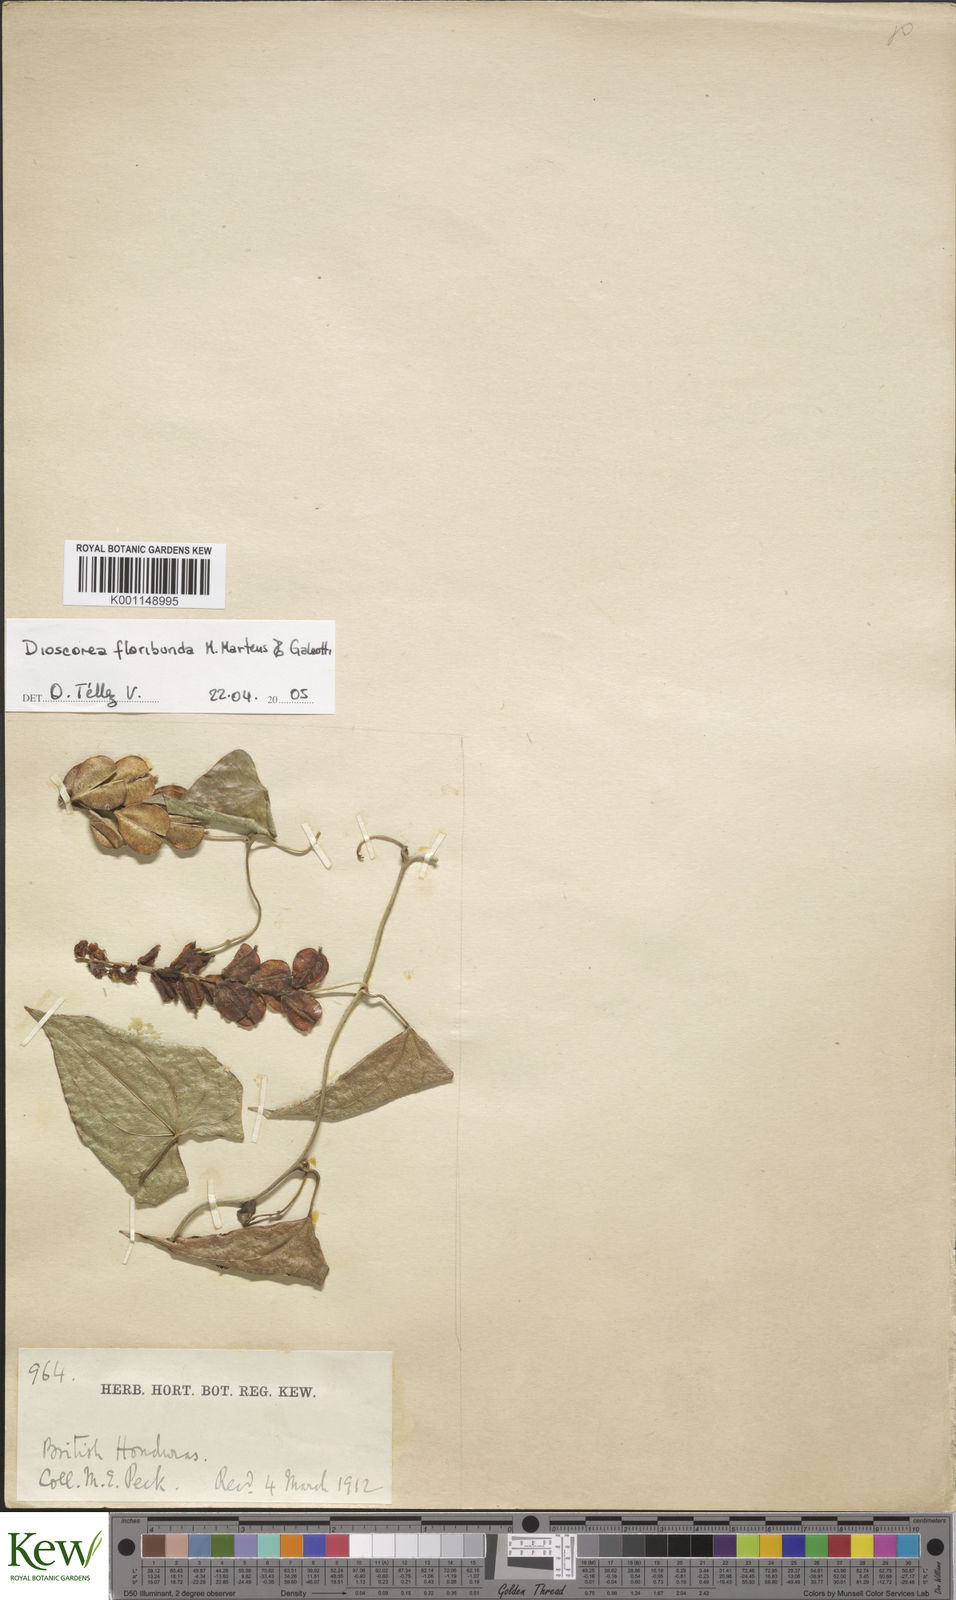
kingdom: Plantae
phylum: Tracheophyta
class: Liliopsida
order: Dioscoreales
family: Dioscoreaceae
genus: Dioscorea
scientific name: Dioscorea floribunda
